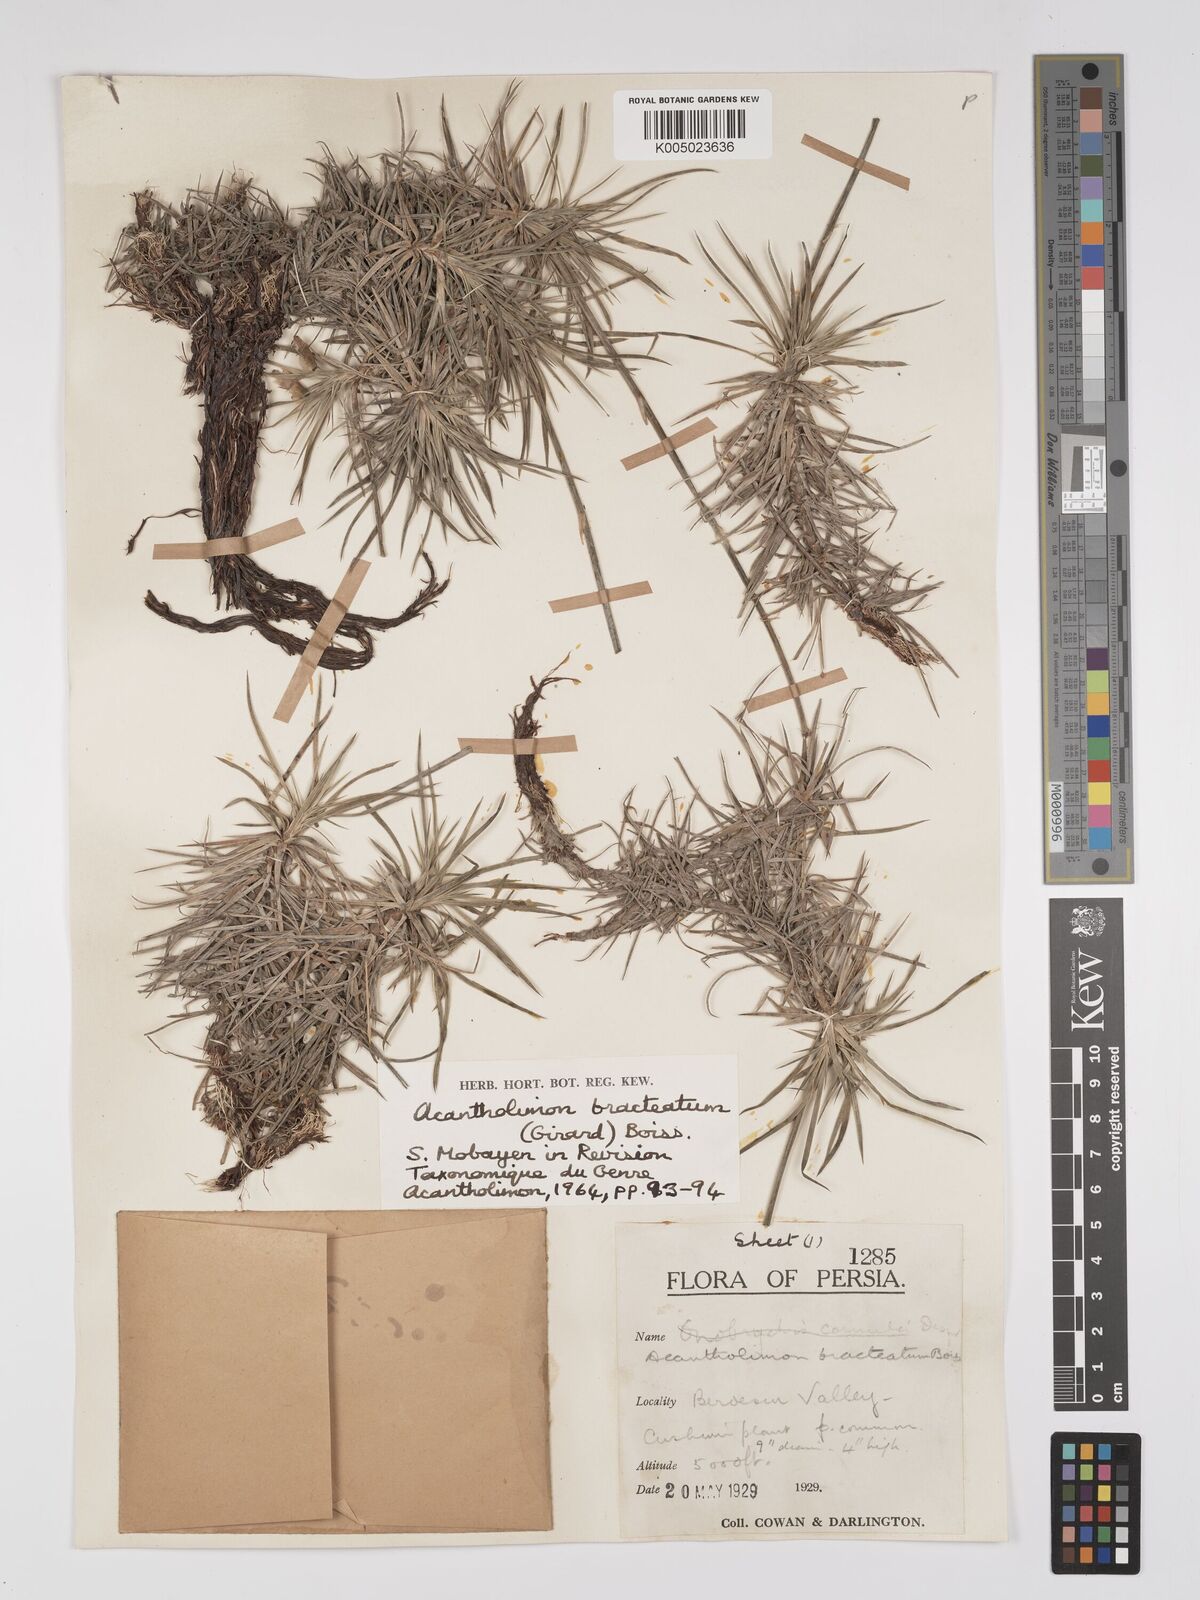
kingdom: Plantae
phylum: Tracheophyta
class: Magnoliopsida
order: Caryophyllales
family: Plumbaginaceae
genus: Acantholimon
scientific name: Acantholimon bracteatum
